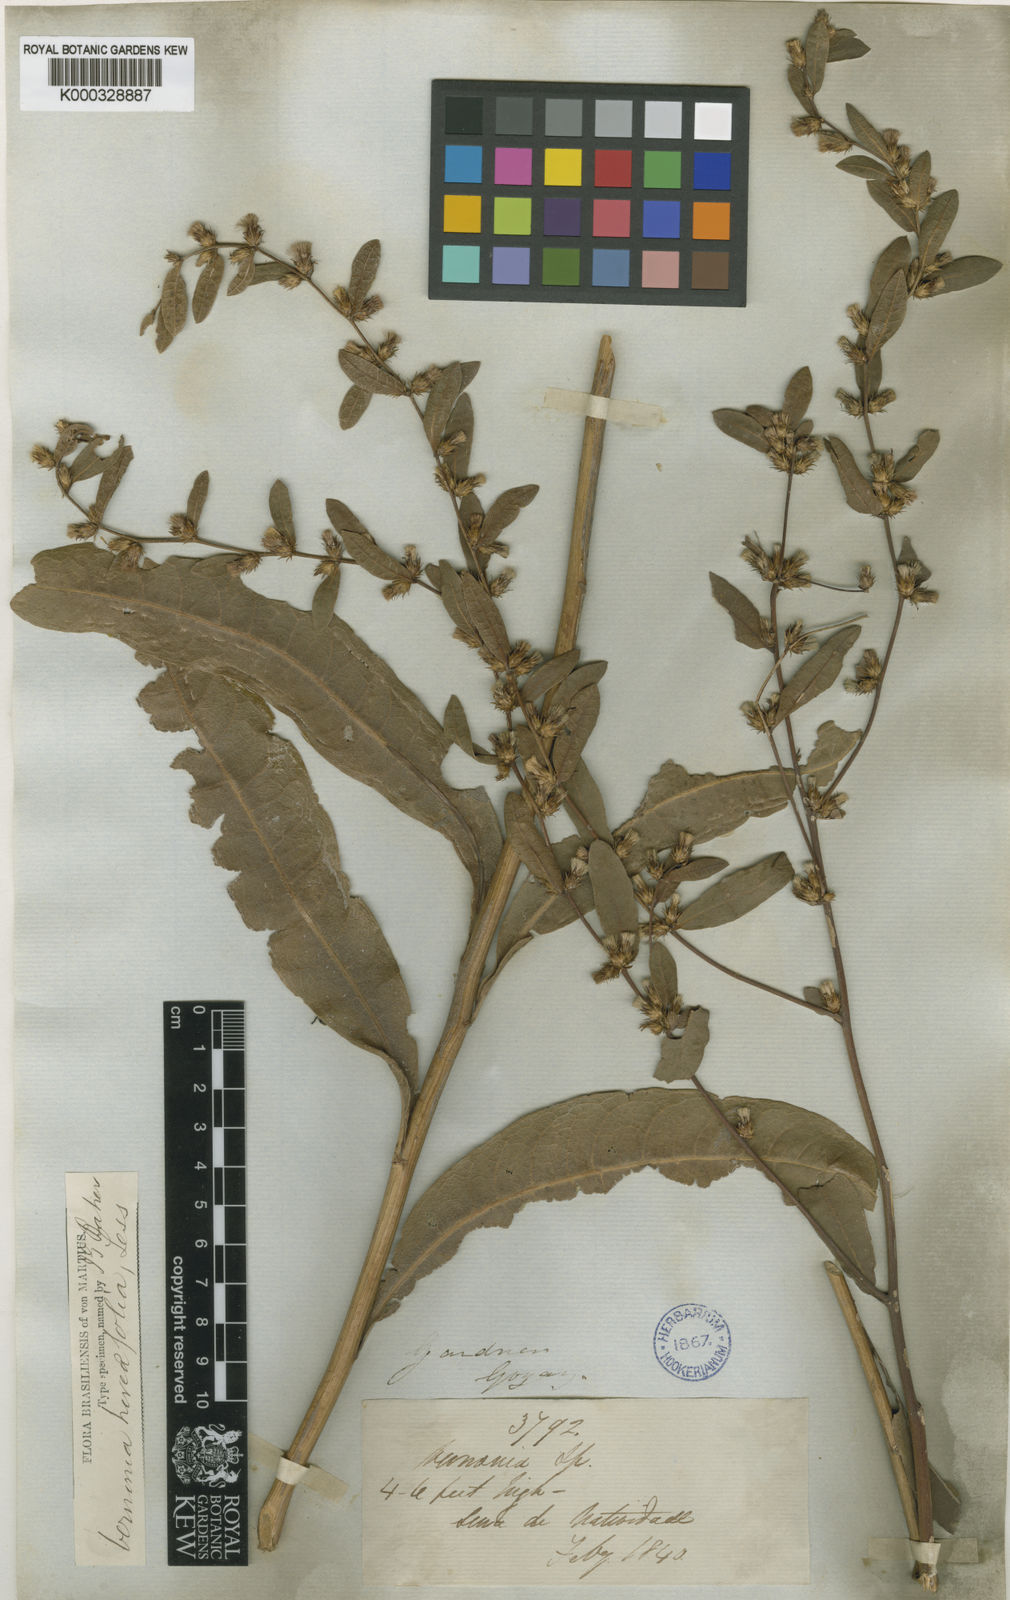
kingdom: Plantae
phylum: Tracheophyta
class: Magnoliopsida
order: Asterales
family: Asteraceae
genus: Lessingianthus
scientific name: Lessingianthus hoveifolius
